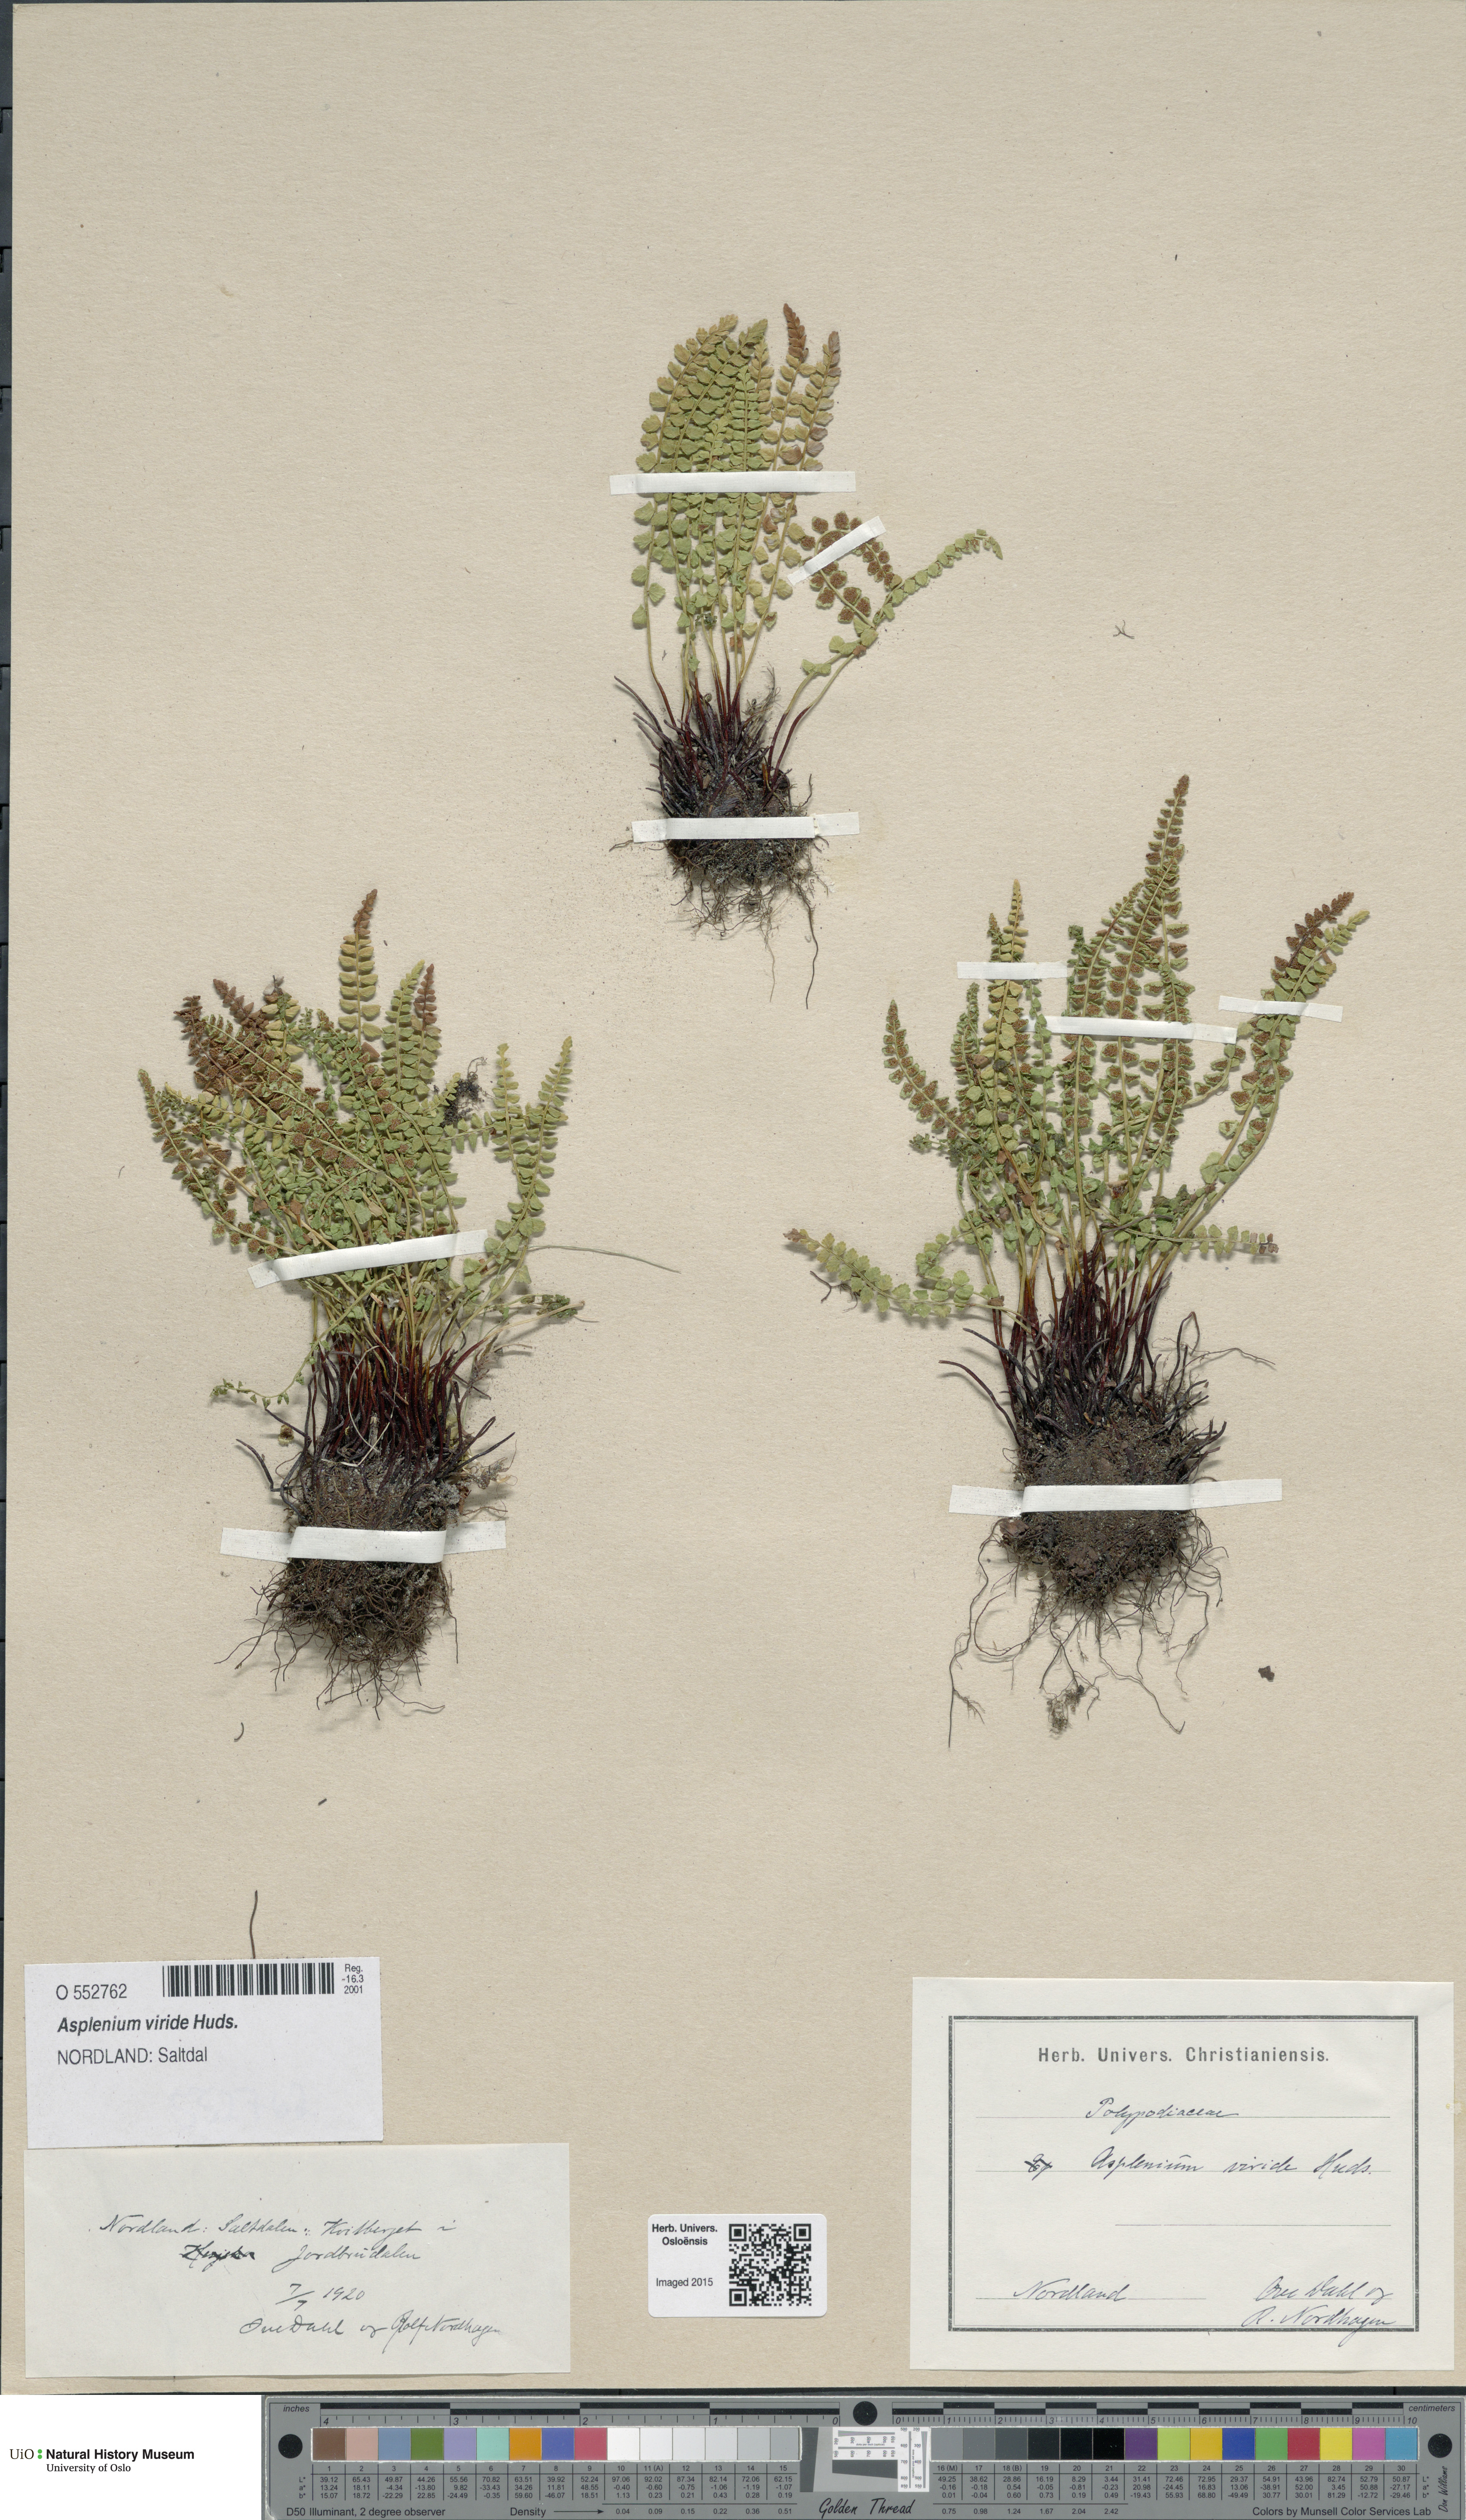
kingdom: Plantae
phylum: Tracheophyta
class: Polypodiopsida
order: Polypodiales
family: Aspleniaceae
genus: Asplenium
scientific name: Asplenium viride
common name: Green spleenwort
